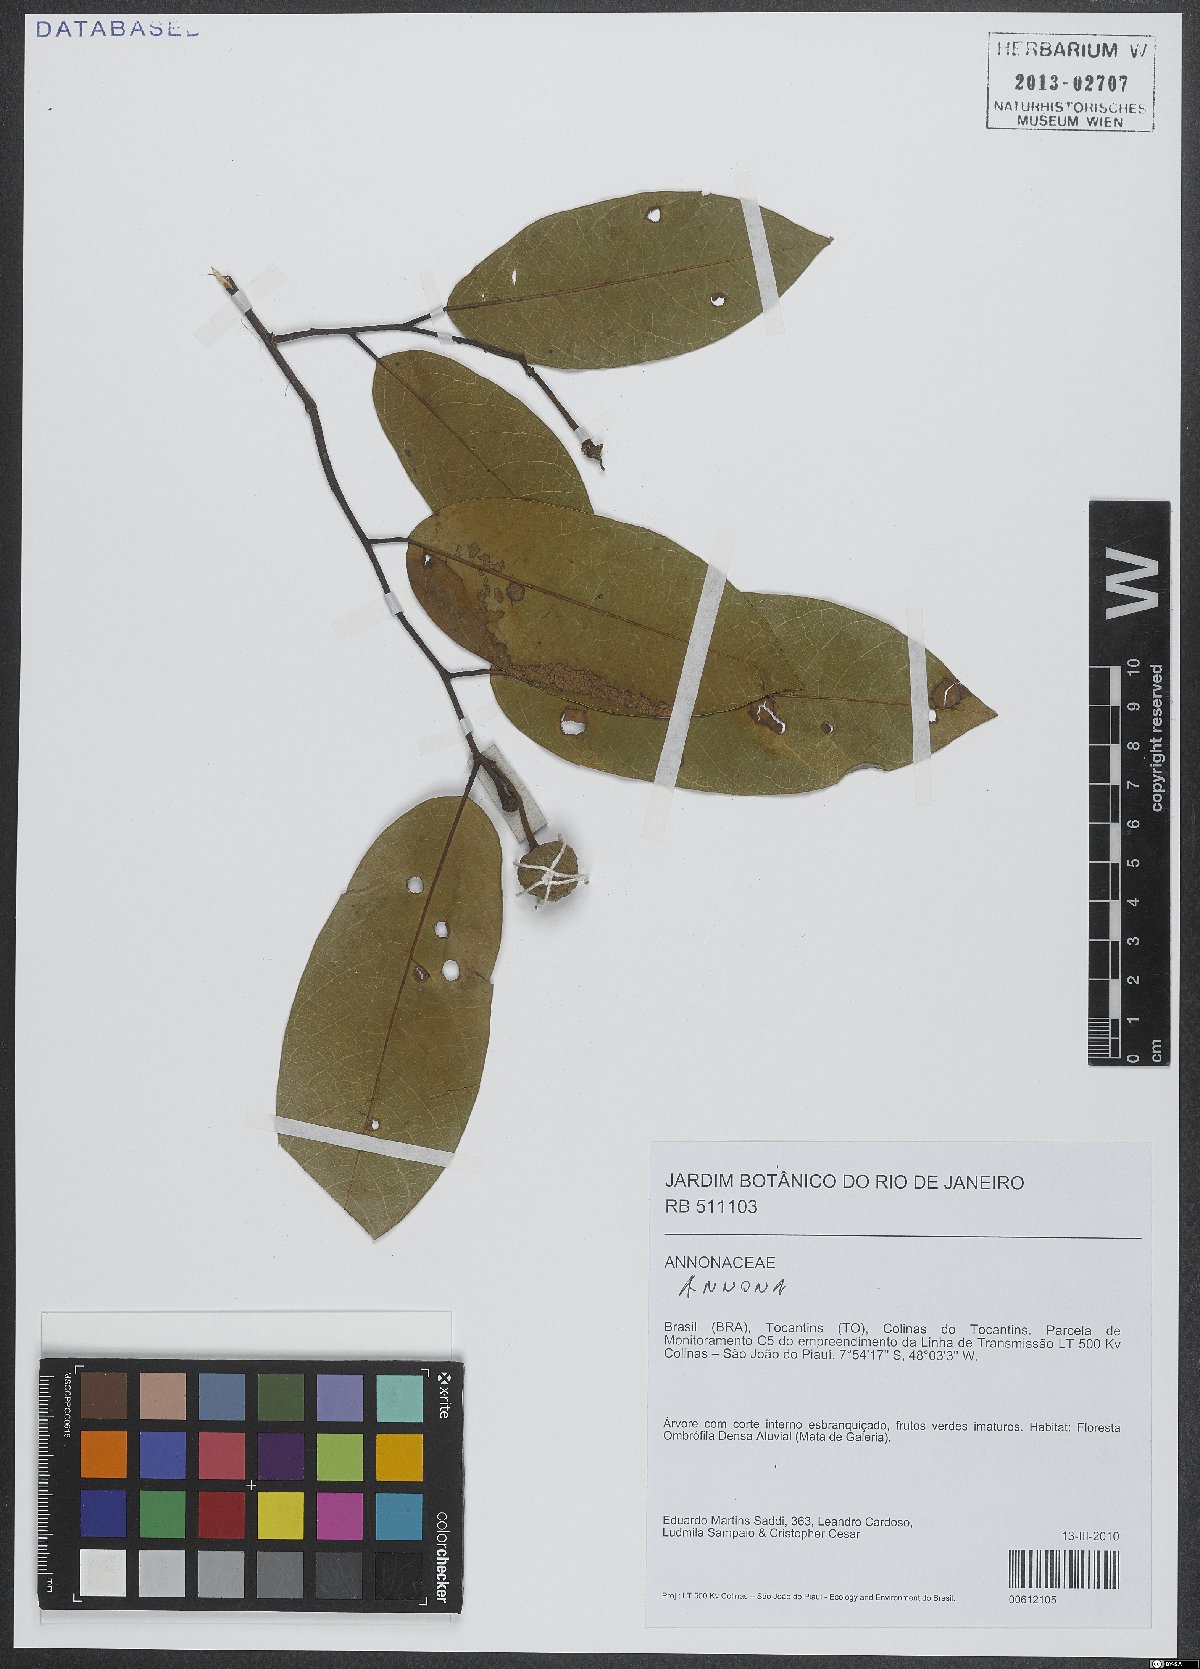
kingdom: Plantae
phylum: Tracheophyta
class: Magnoliopsida
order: Magnoliales
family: Annonaceae
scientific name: Annonaceae
